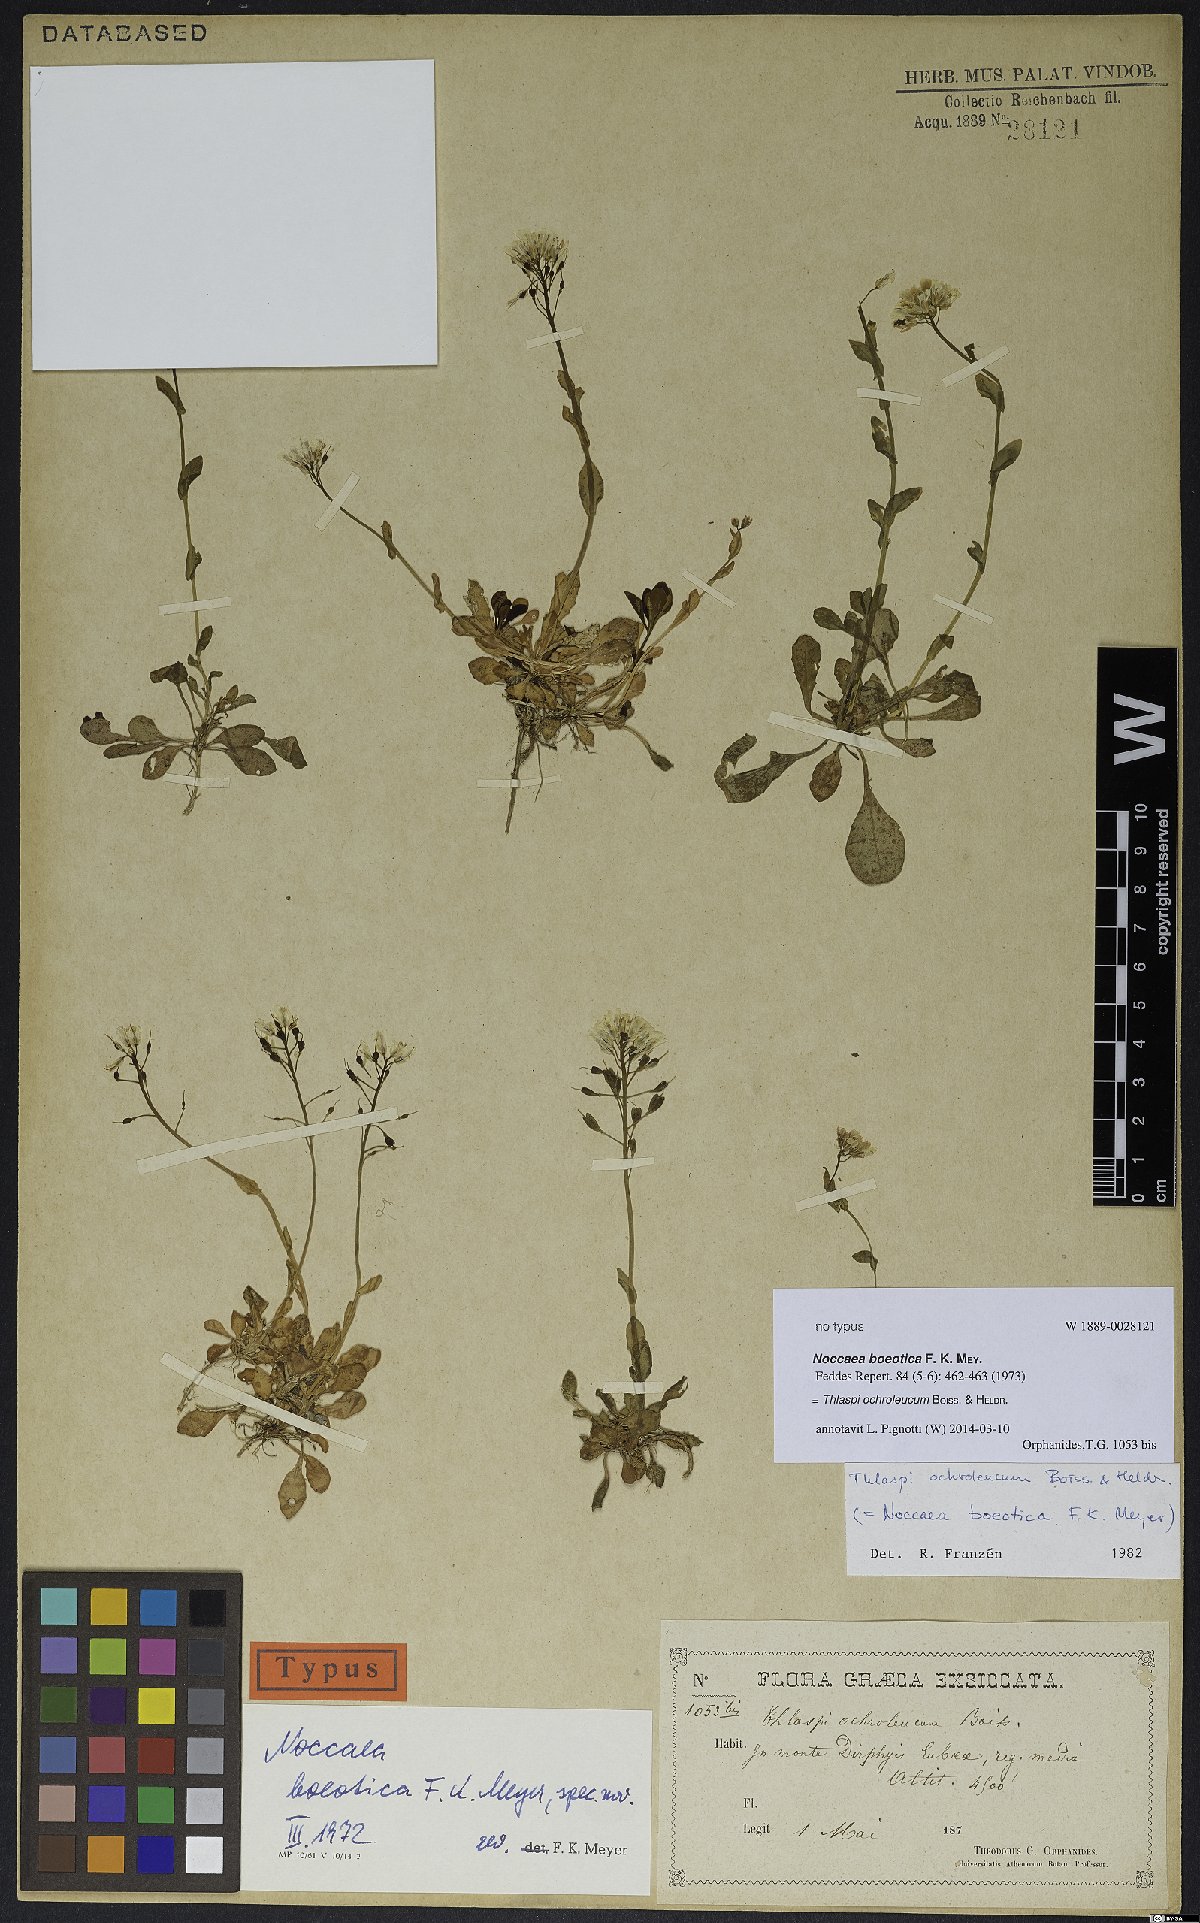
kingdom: Plantae
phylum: Tracheophyta
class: Magnoliopsida
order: Brassicales
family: Brassicaceae
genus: Noccaea
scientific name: Noccaea ochroleuca
